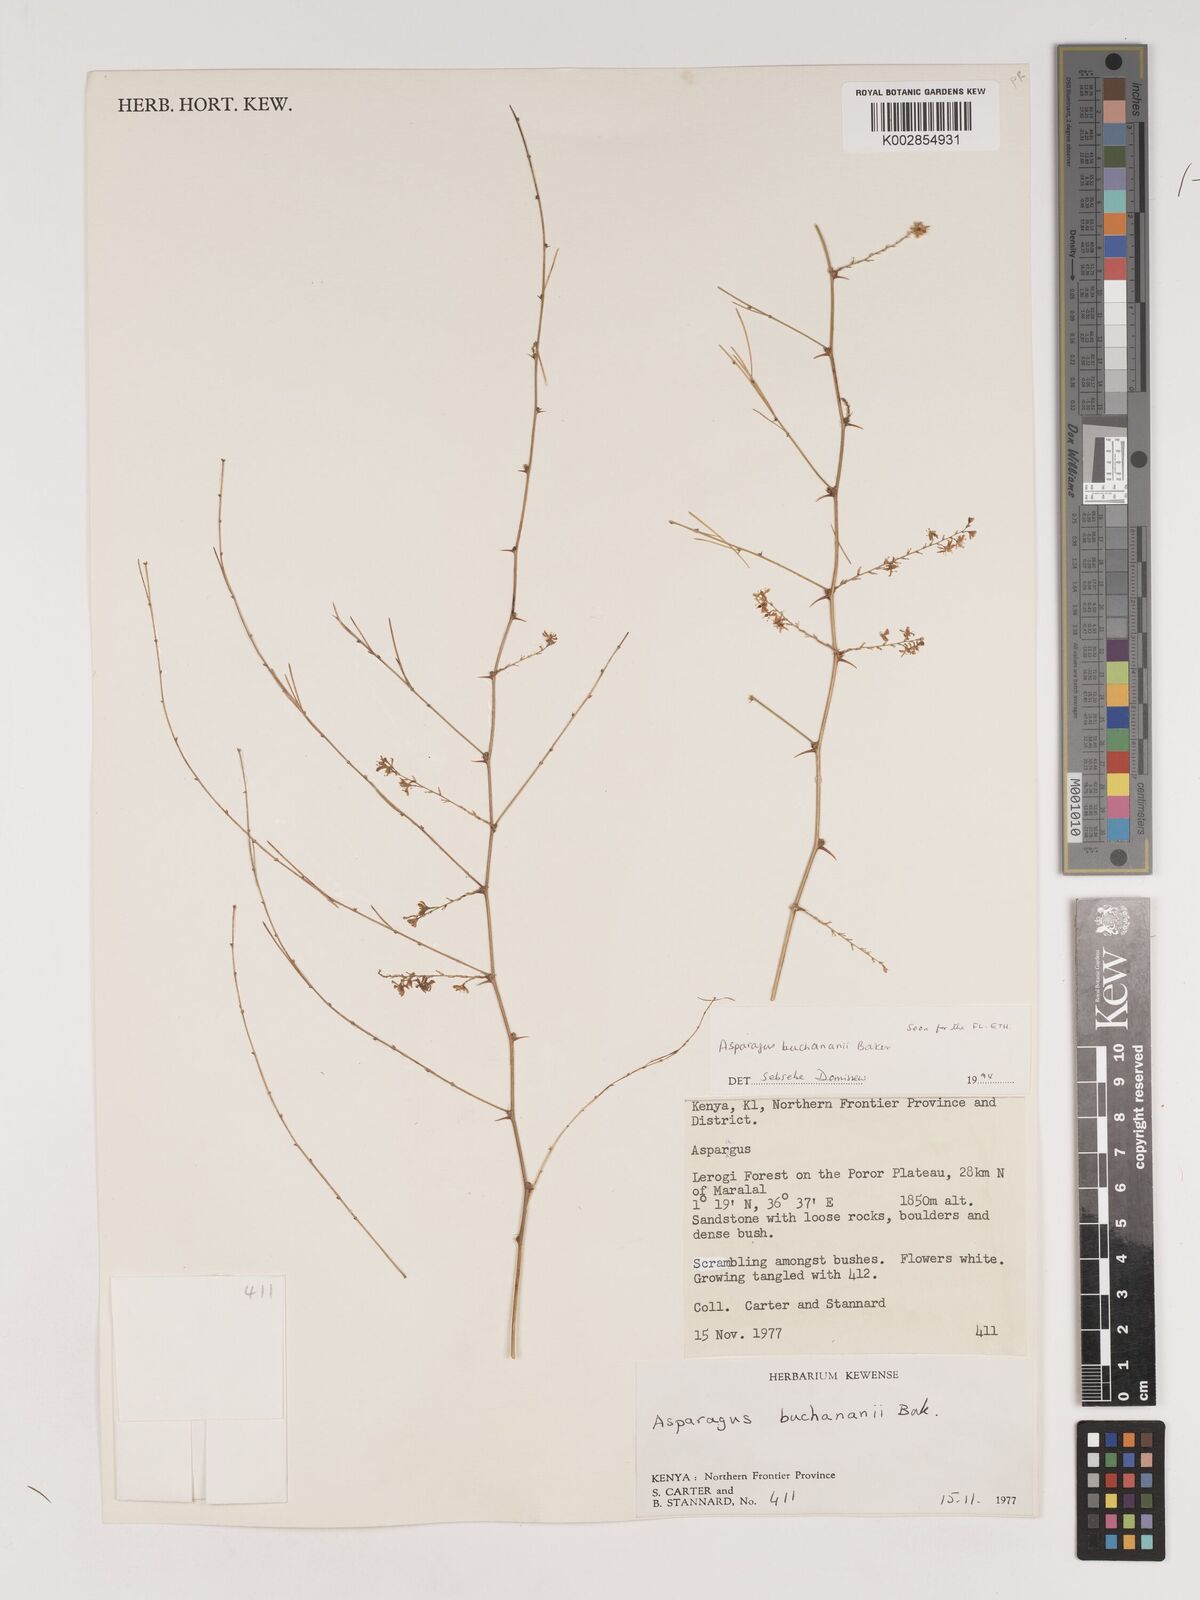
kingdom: Plantae
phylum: Tracheophyta
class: Liliopsida
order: Asparagales
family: Asparagaceae
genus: Asparagus
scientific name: Asparagus buchananii
